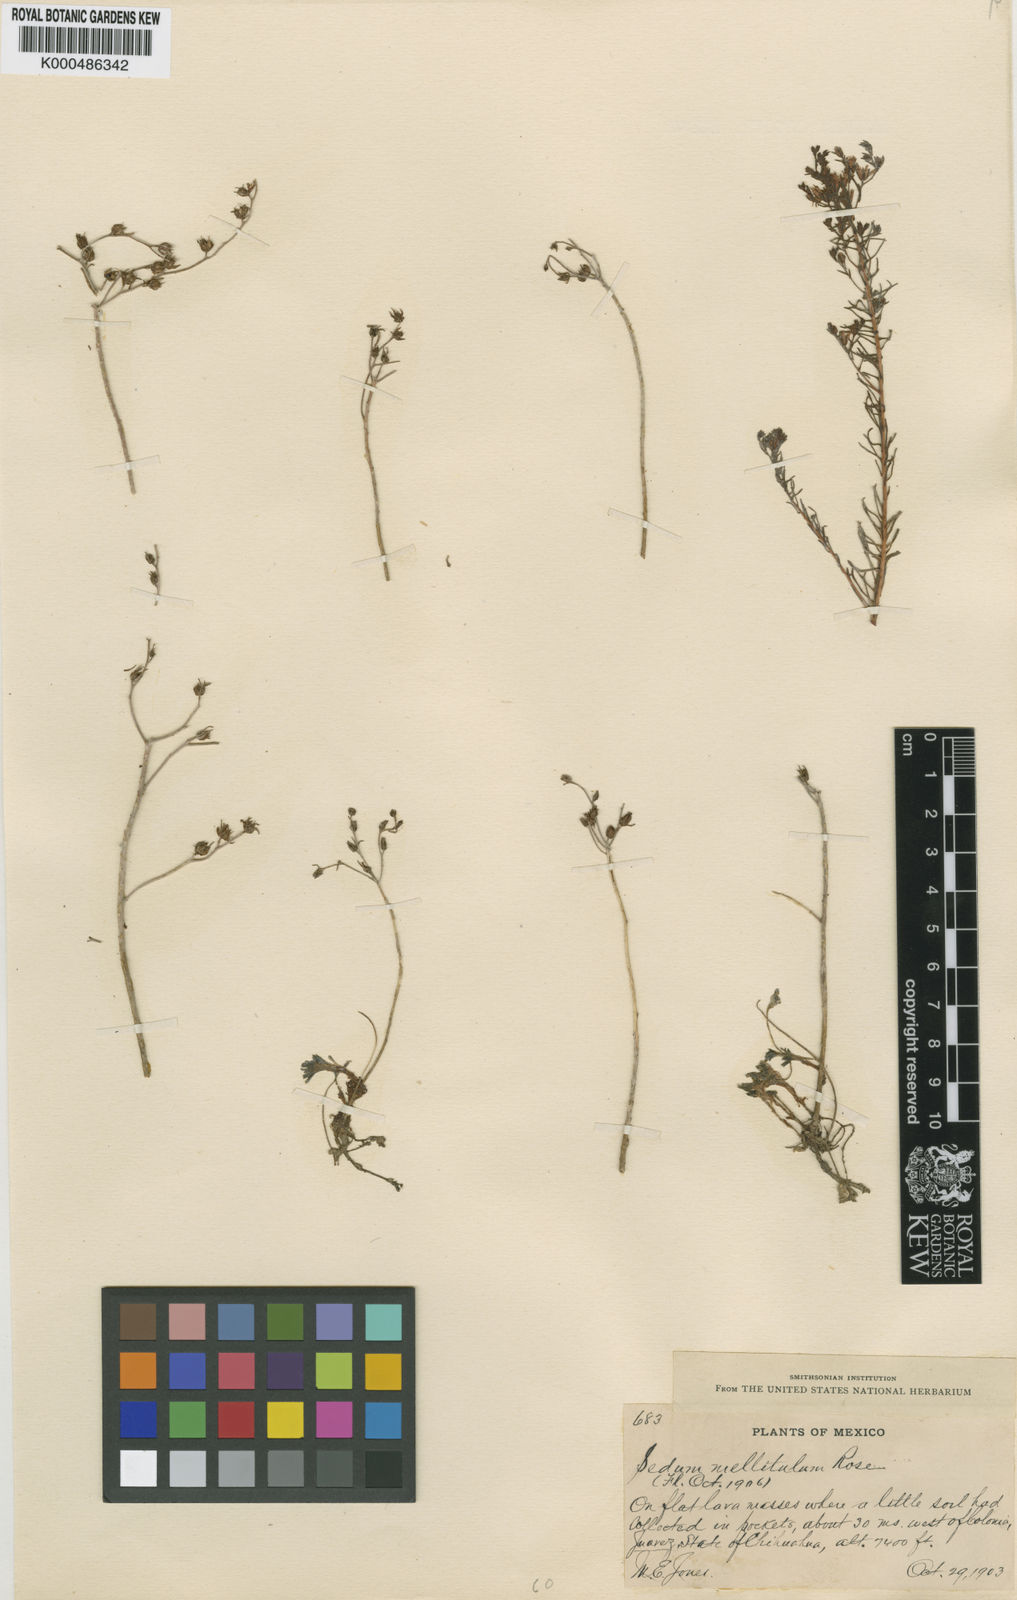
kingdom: Plantae
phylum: Tracheophyta
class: Magnoliopsida
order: Saxifragales
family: Crassulaceae
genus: Sedum
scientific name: Sedum mellitulum
